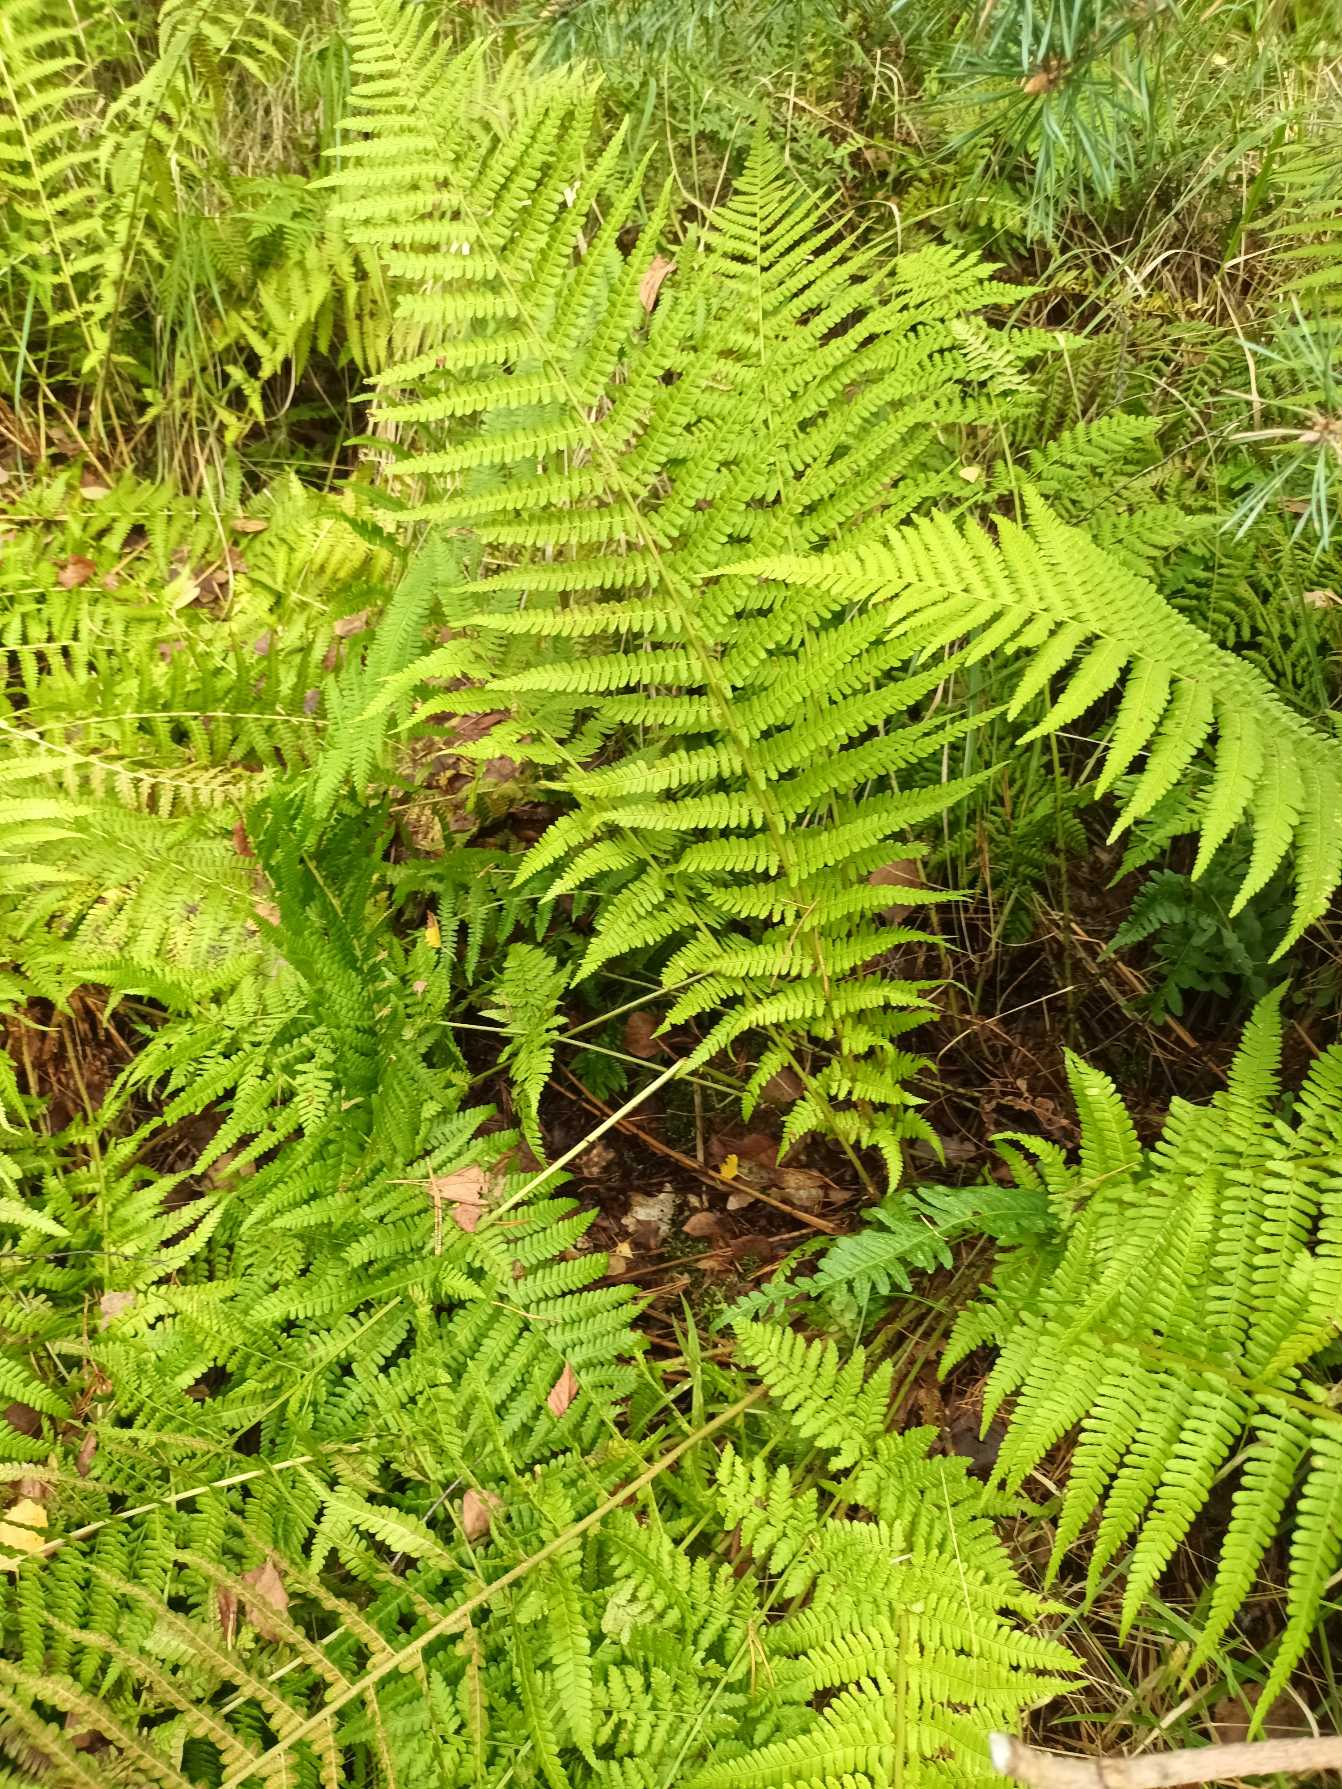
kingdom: Plantae
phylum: Tracheophyta
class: Polypodiopsida
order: Polypodiales
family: Dryopteridaceae
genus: Dryopteris
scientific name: Dryopteris filix-mas
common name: Almindelig mangeløv
